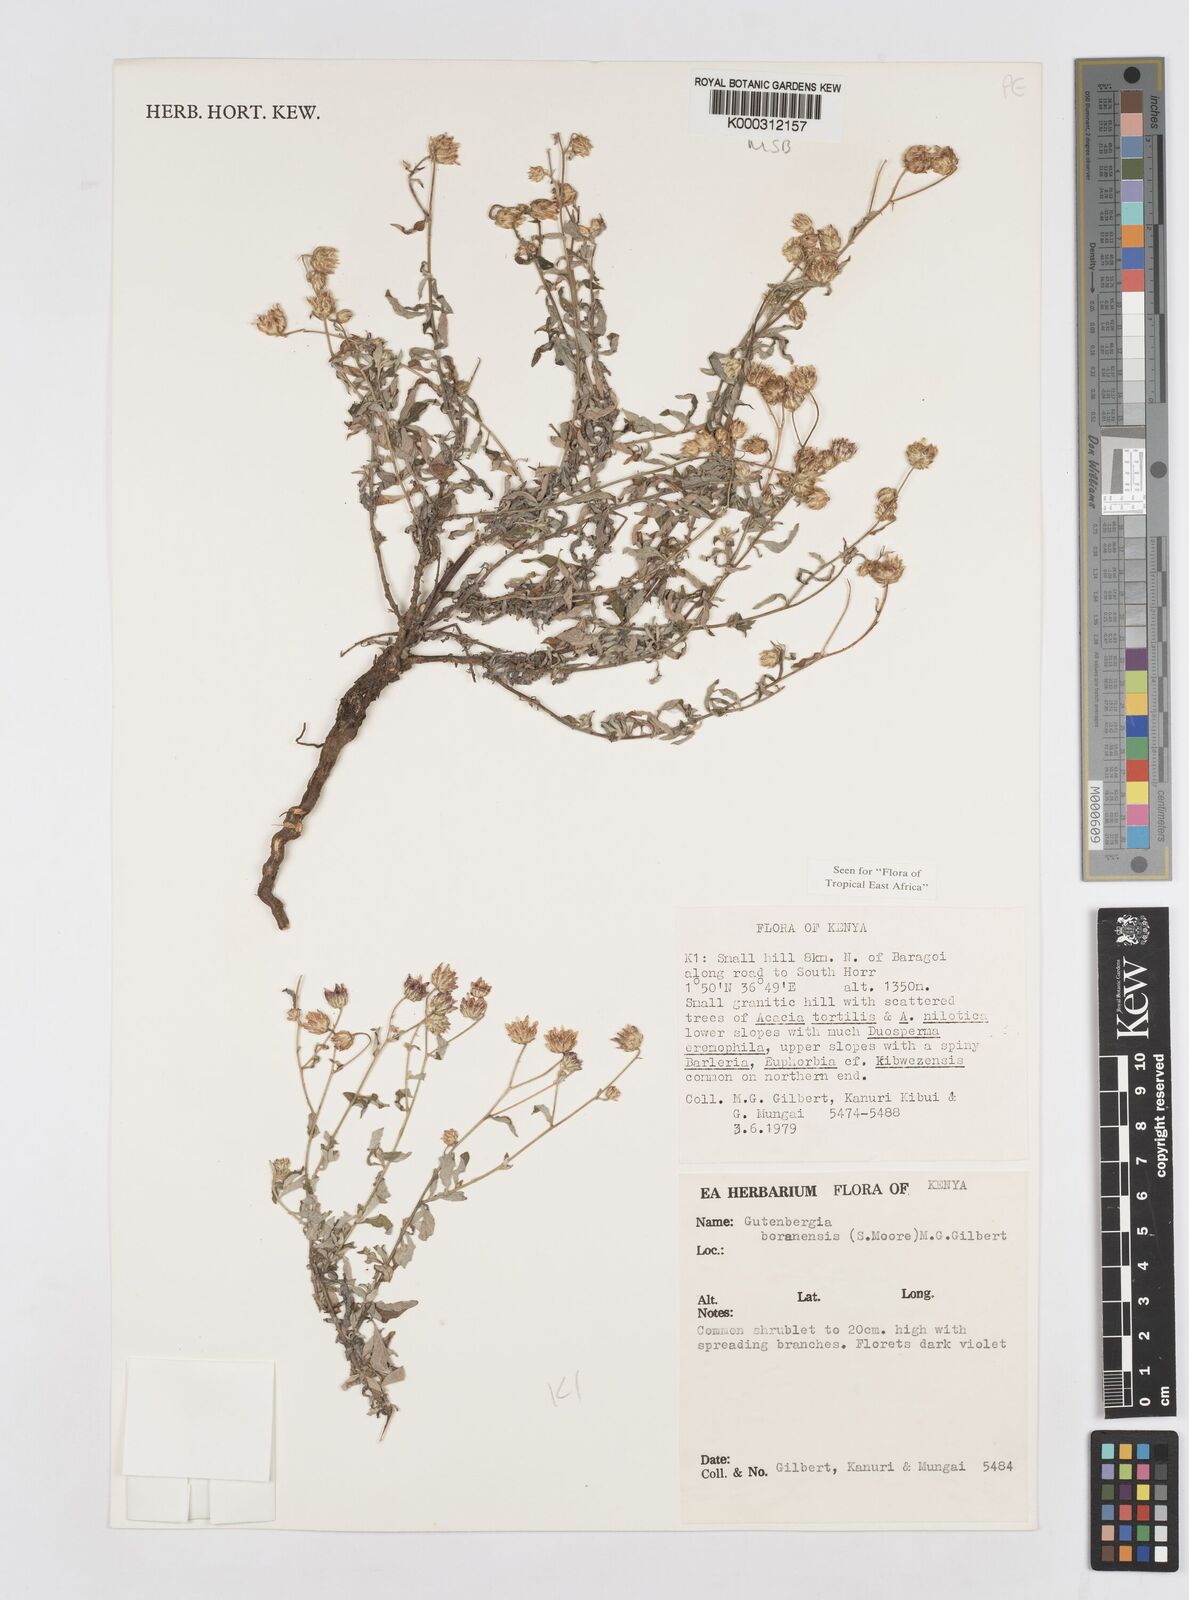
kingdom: Plantae
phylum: Tracheophyta
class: Magnoliopsida
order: Asterales
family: Asteraceae
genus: Gutenbergia
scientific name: Gutenbergia boranensis
